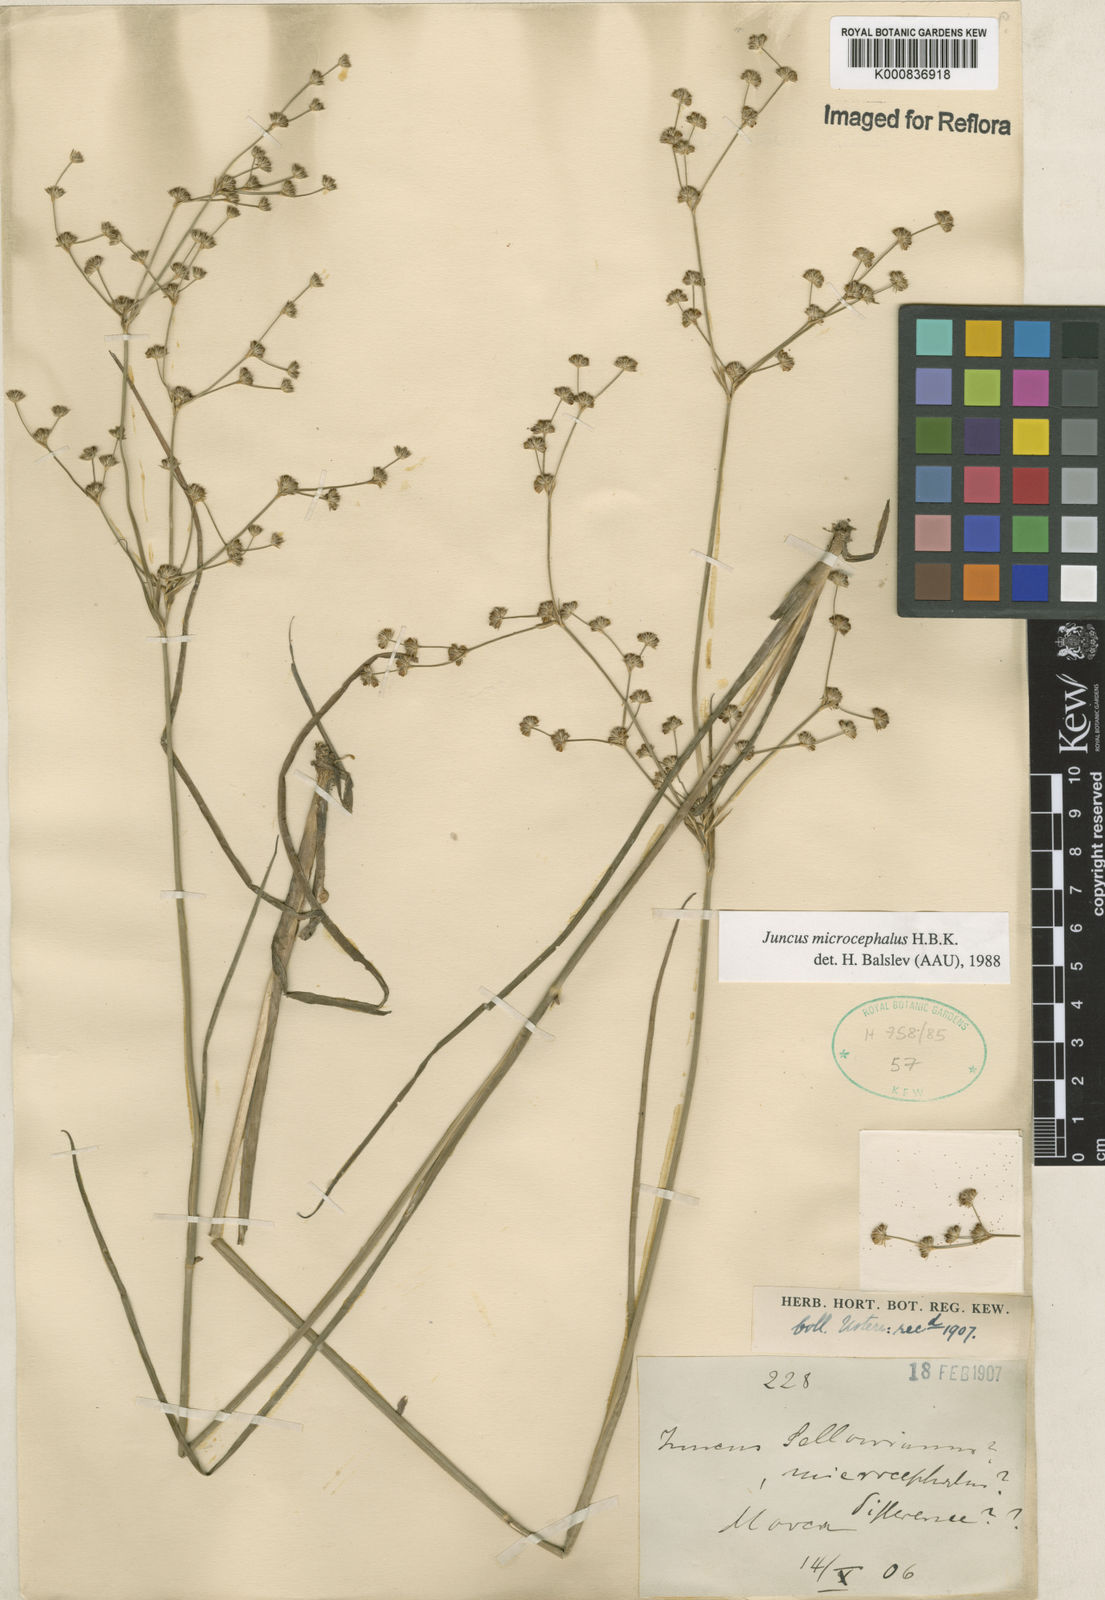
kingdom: Plantae
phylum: Tracheophyta
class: Liliopsida
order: Poales
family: Juncaceae
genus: Juncus
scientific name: Juncus microcephalus
